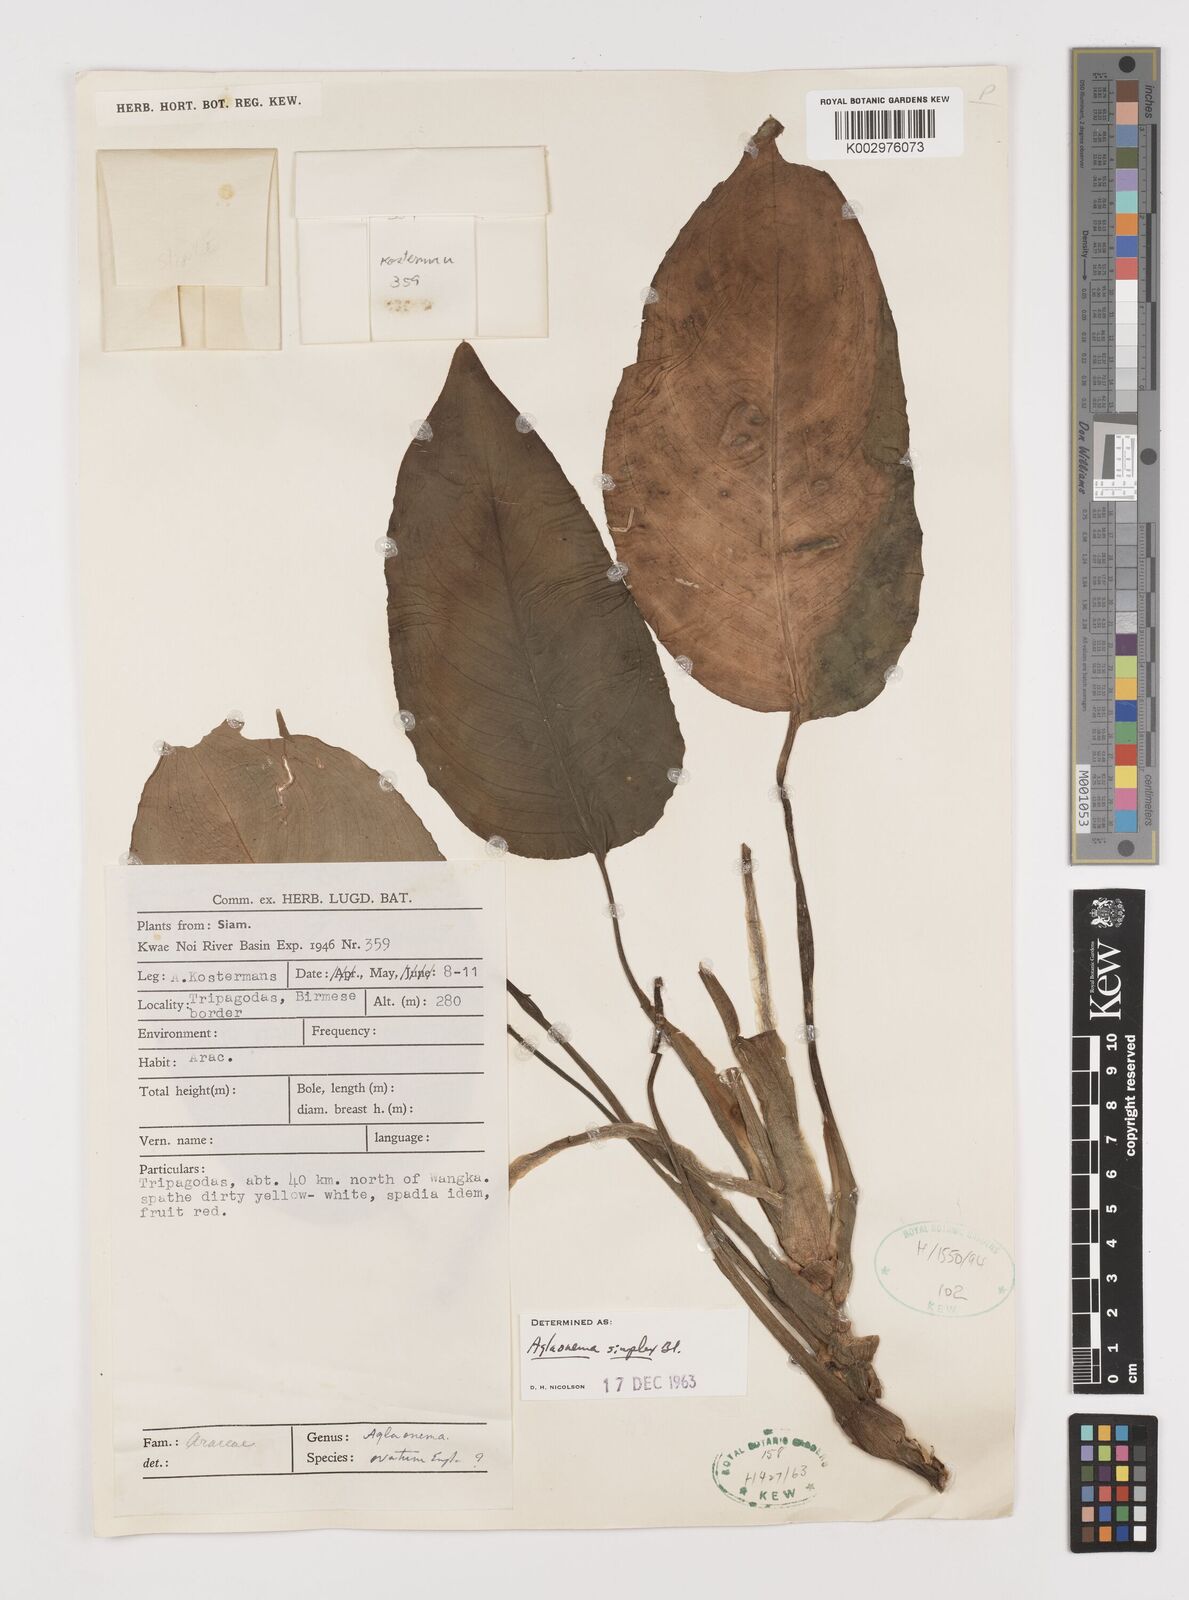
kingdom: Plantae
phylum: Tracheophyta
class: Liliopsida
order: Alismatales
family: Araceae
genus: Aglaonema
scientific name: Aglaonema simplex
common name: Malayan-sword
